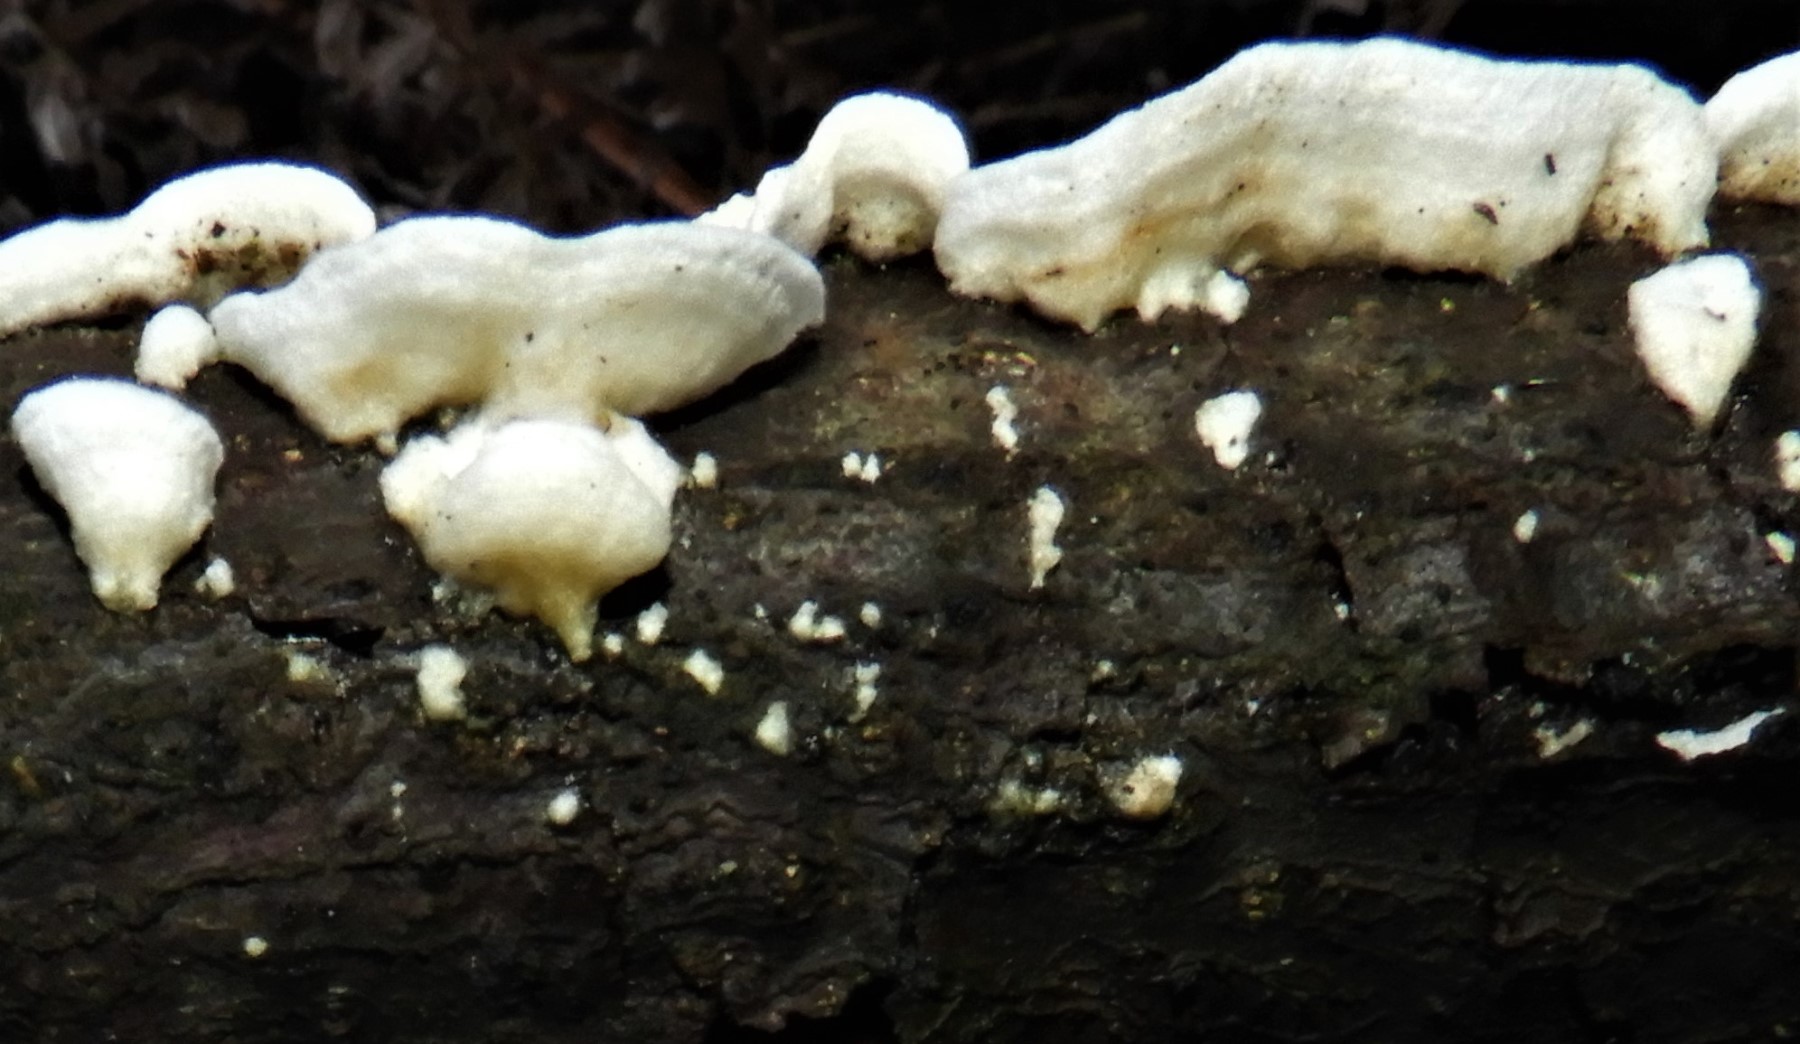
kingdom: Fungi
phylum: Basidiomycota
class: Agaricomycetes
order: Polyporales
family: Irpicaceae
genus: Byssomerulius
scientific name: Byssomerulius corium
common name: læder-åresvamp
